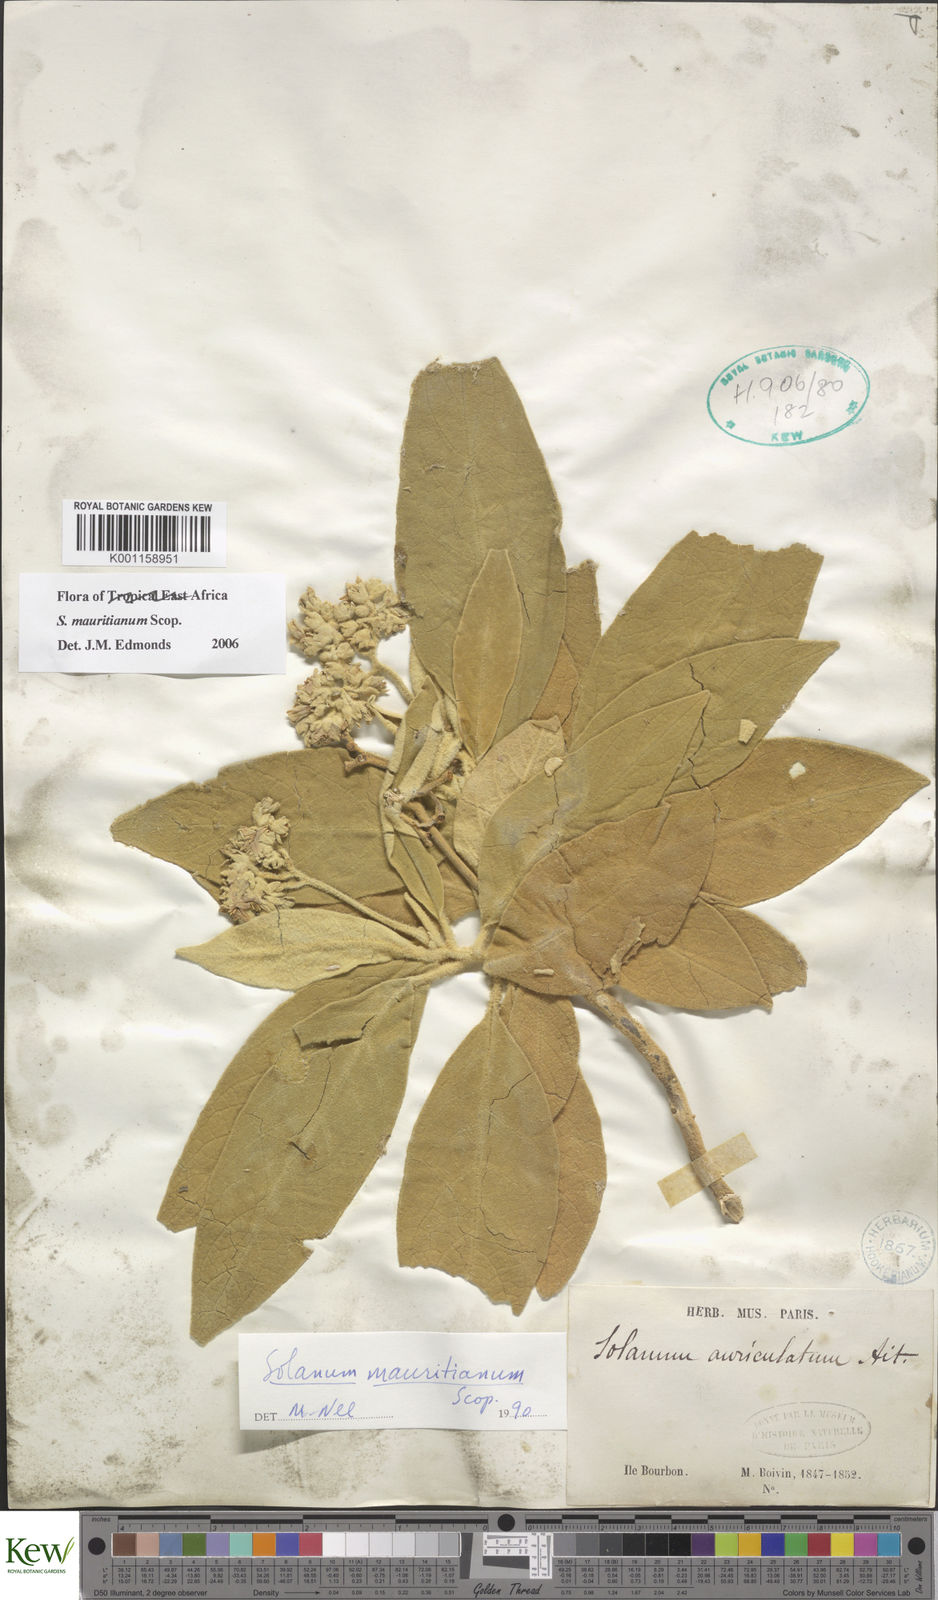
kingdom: Plantae
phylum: Tracheophyta
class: Magnoliopsida
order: Solanales
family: Solanaceae
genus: Solanum
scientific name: Solanum mauritianum
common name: Earleaf nightshade
